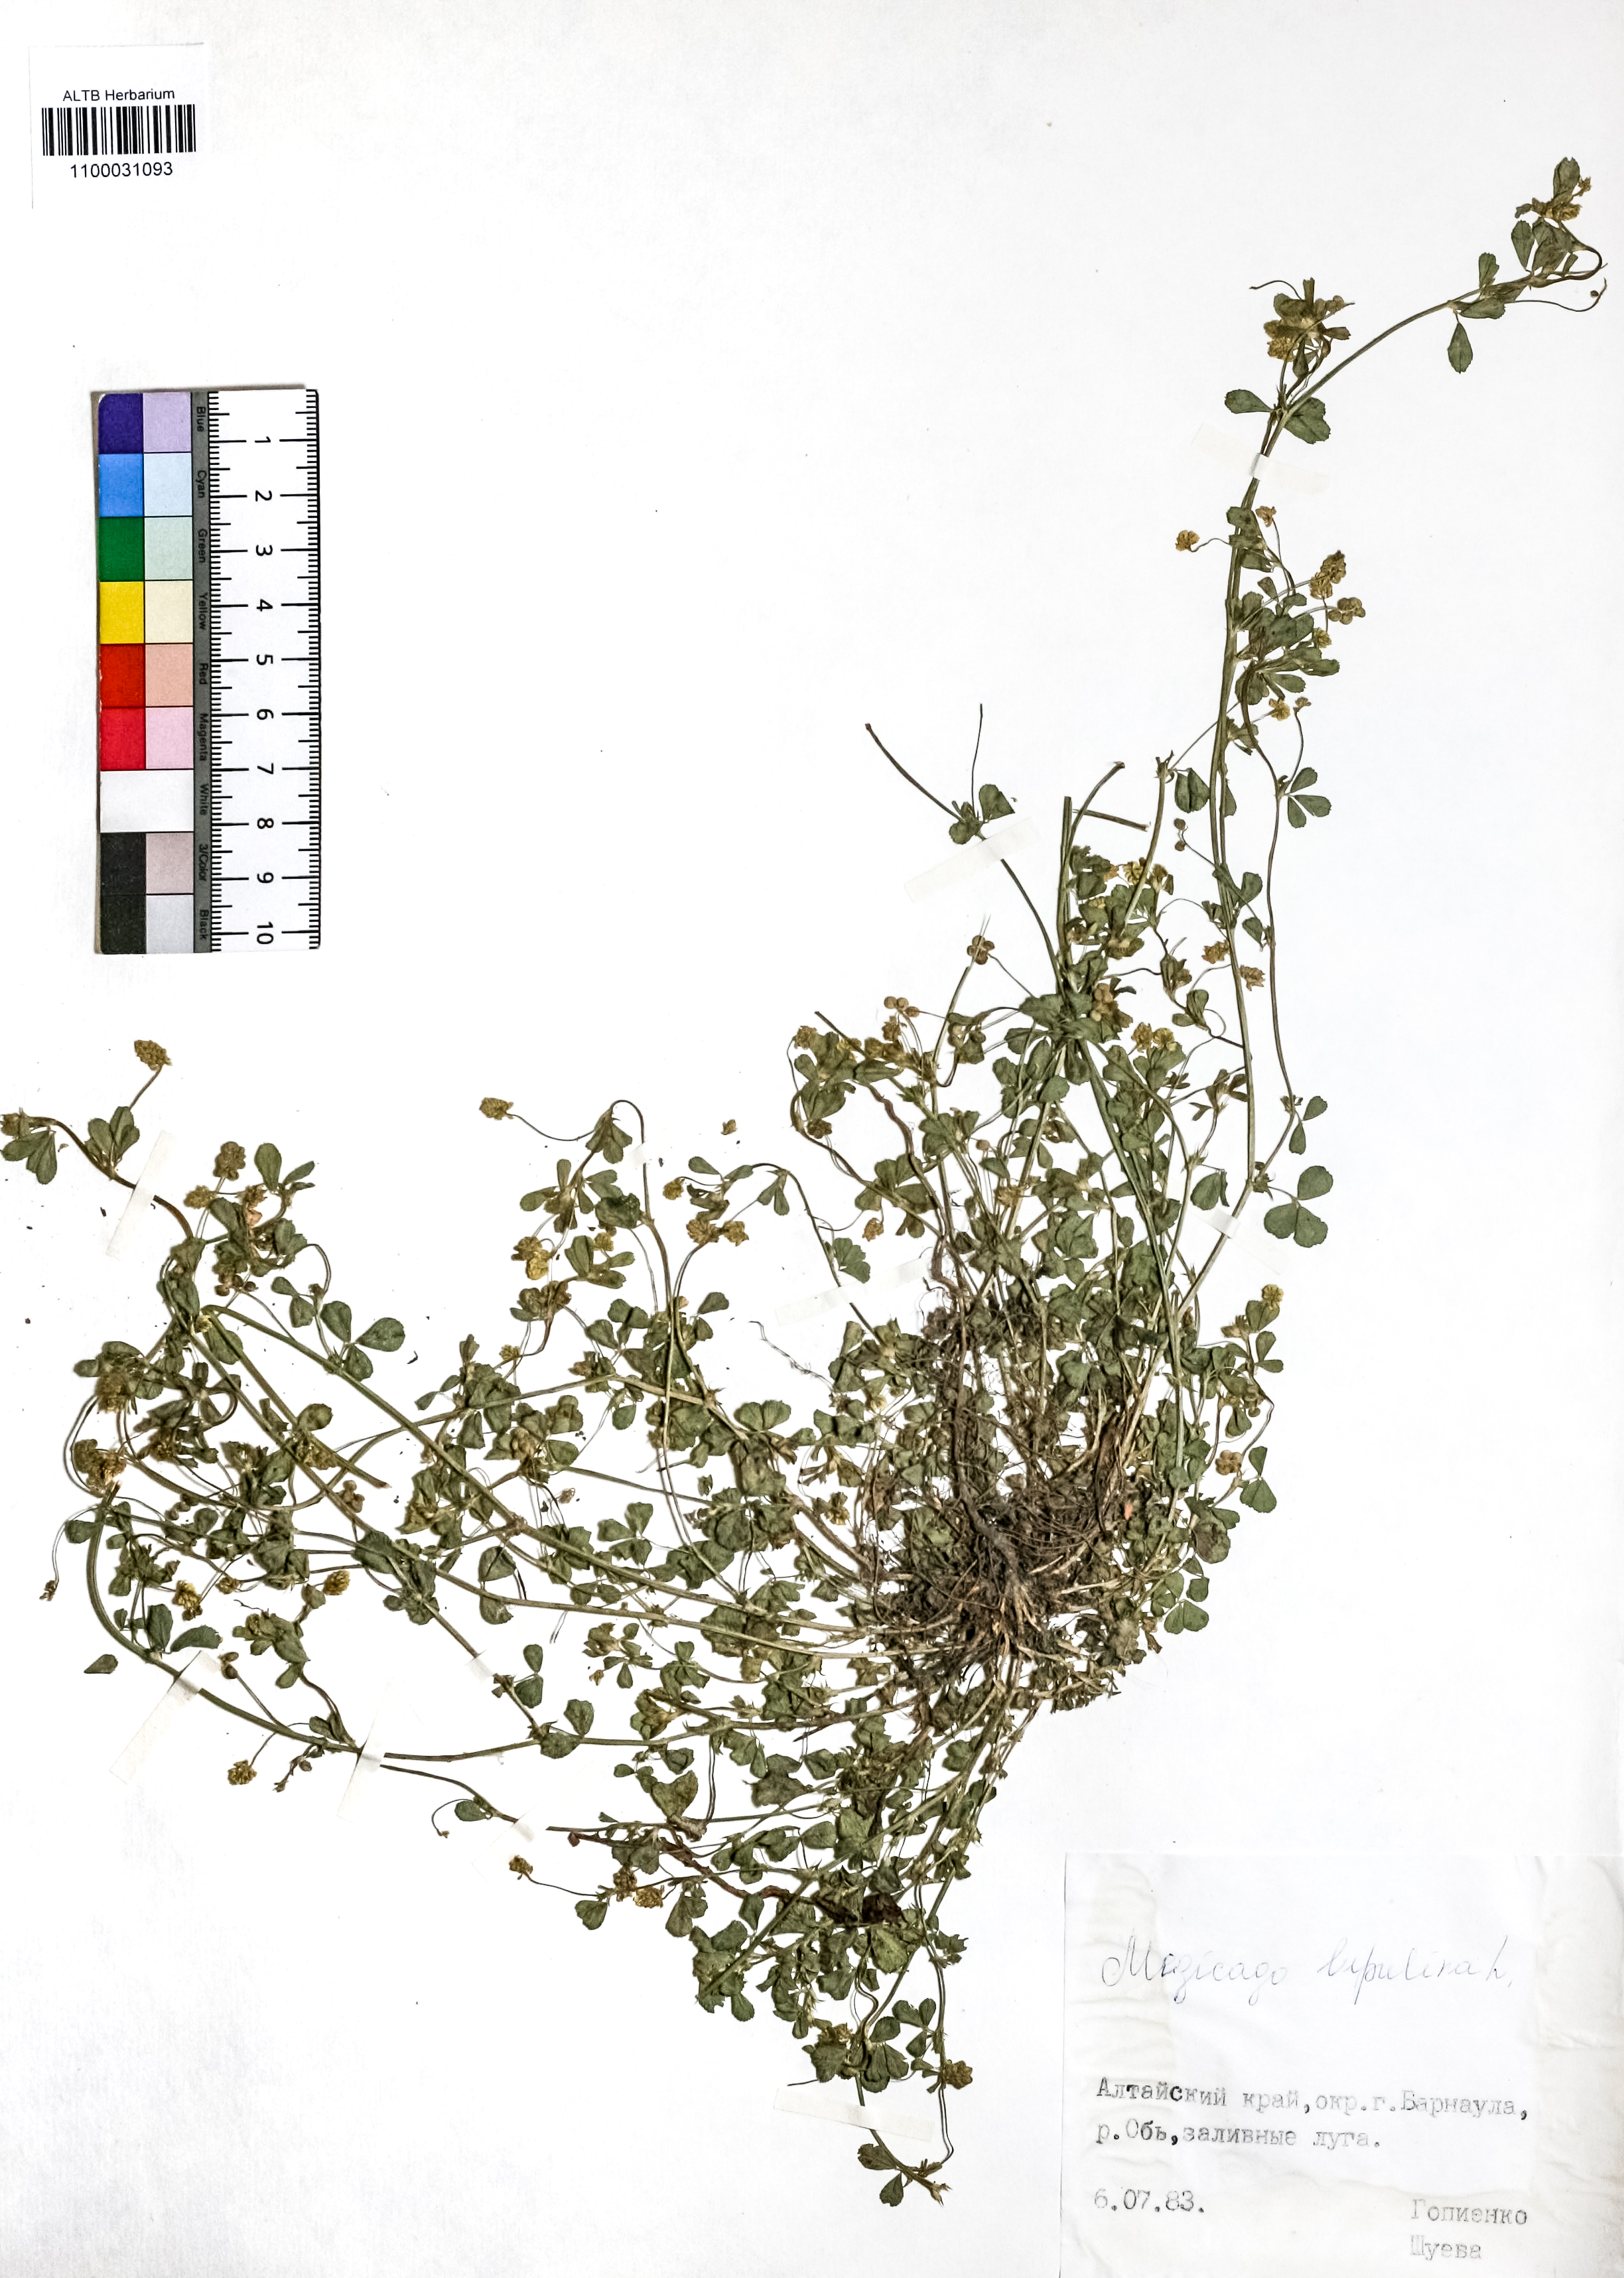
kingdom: Plantae
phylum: Tracheophyta
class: Magnoliopsida
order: Fabales
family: Fabaceae
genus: Medicago
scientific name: Medicago lupulina
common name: Black medick
